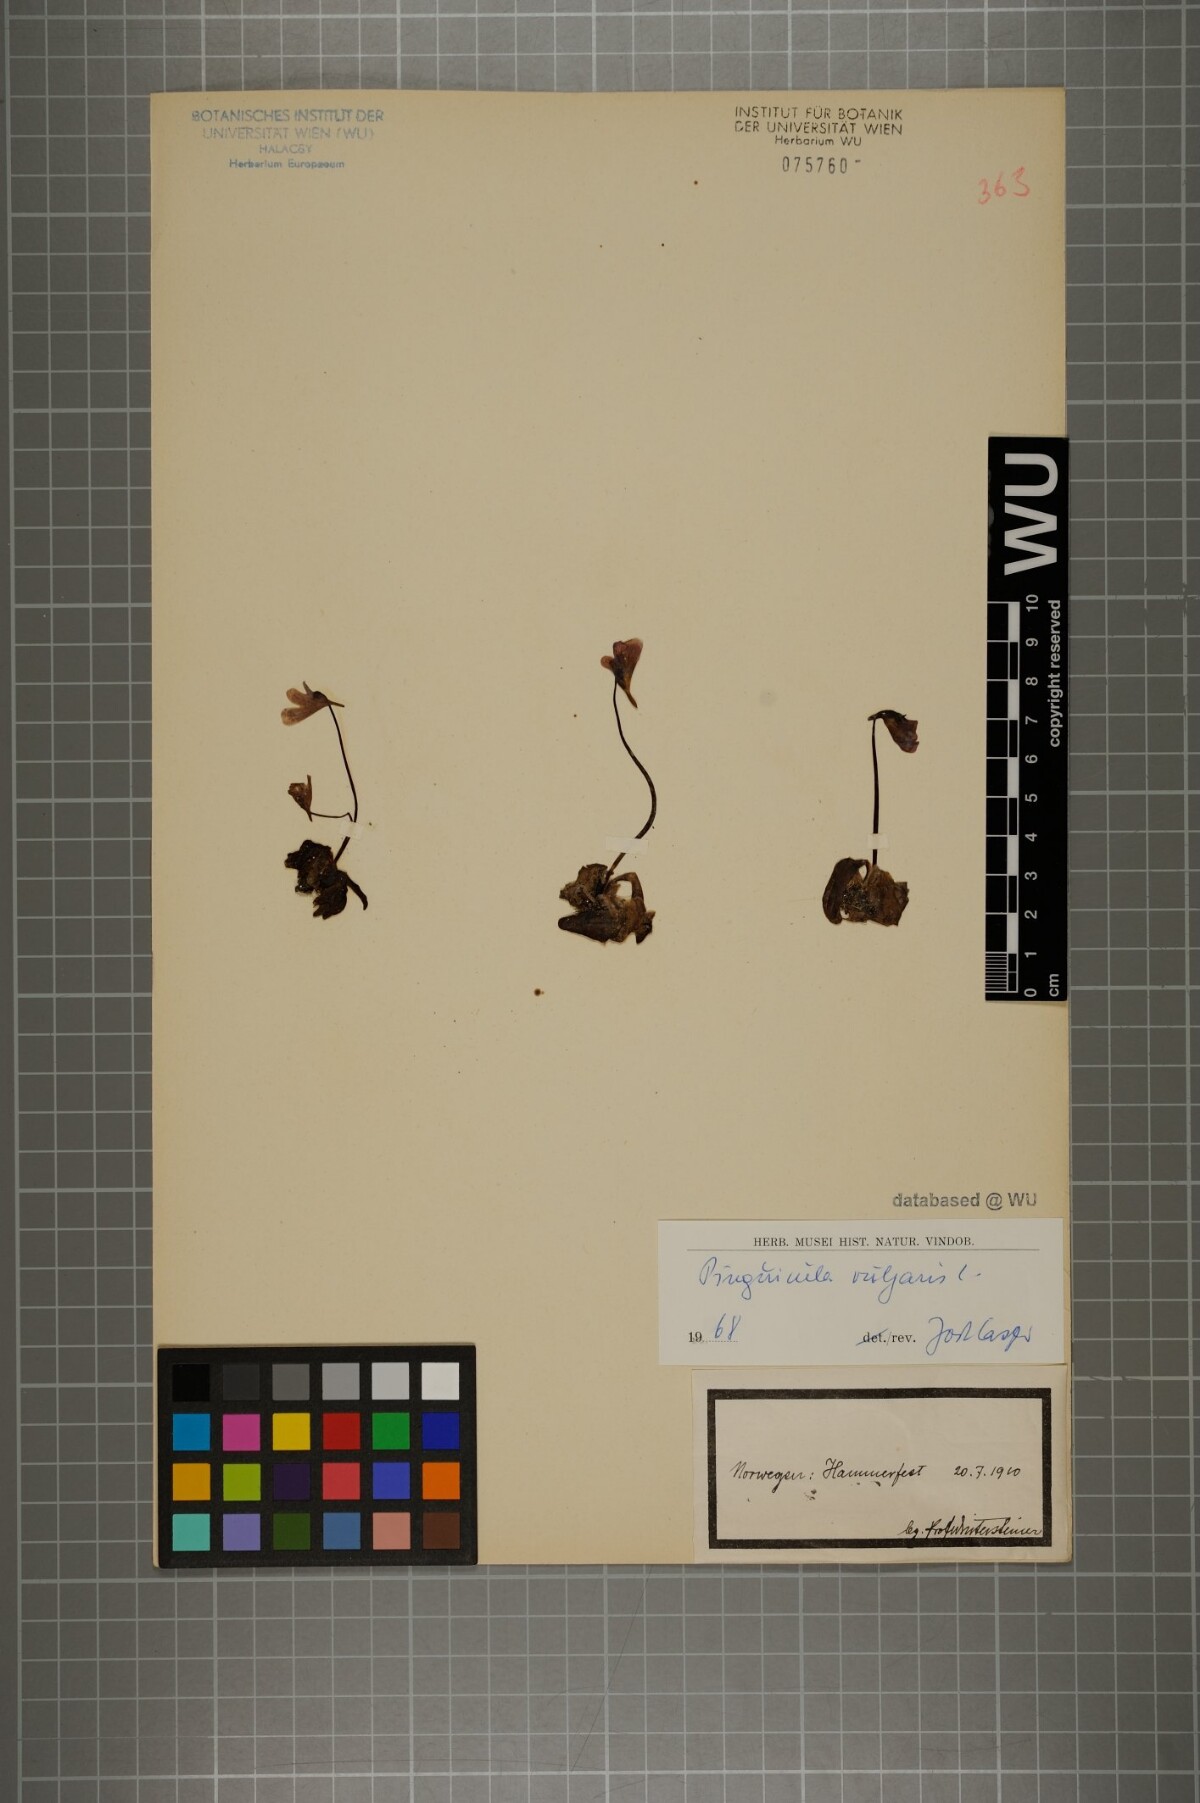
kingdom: Plantae
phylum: Tracheophyta
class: Magnoliopsida
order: Lamiales
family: Lentibulariaceae
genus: Pinguicula
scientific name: Pinguicula vulgaris
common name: Common butterwort
